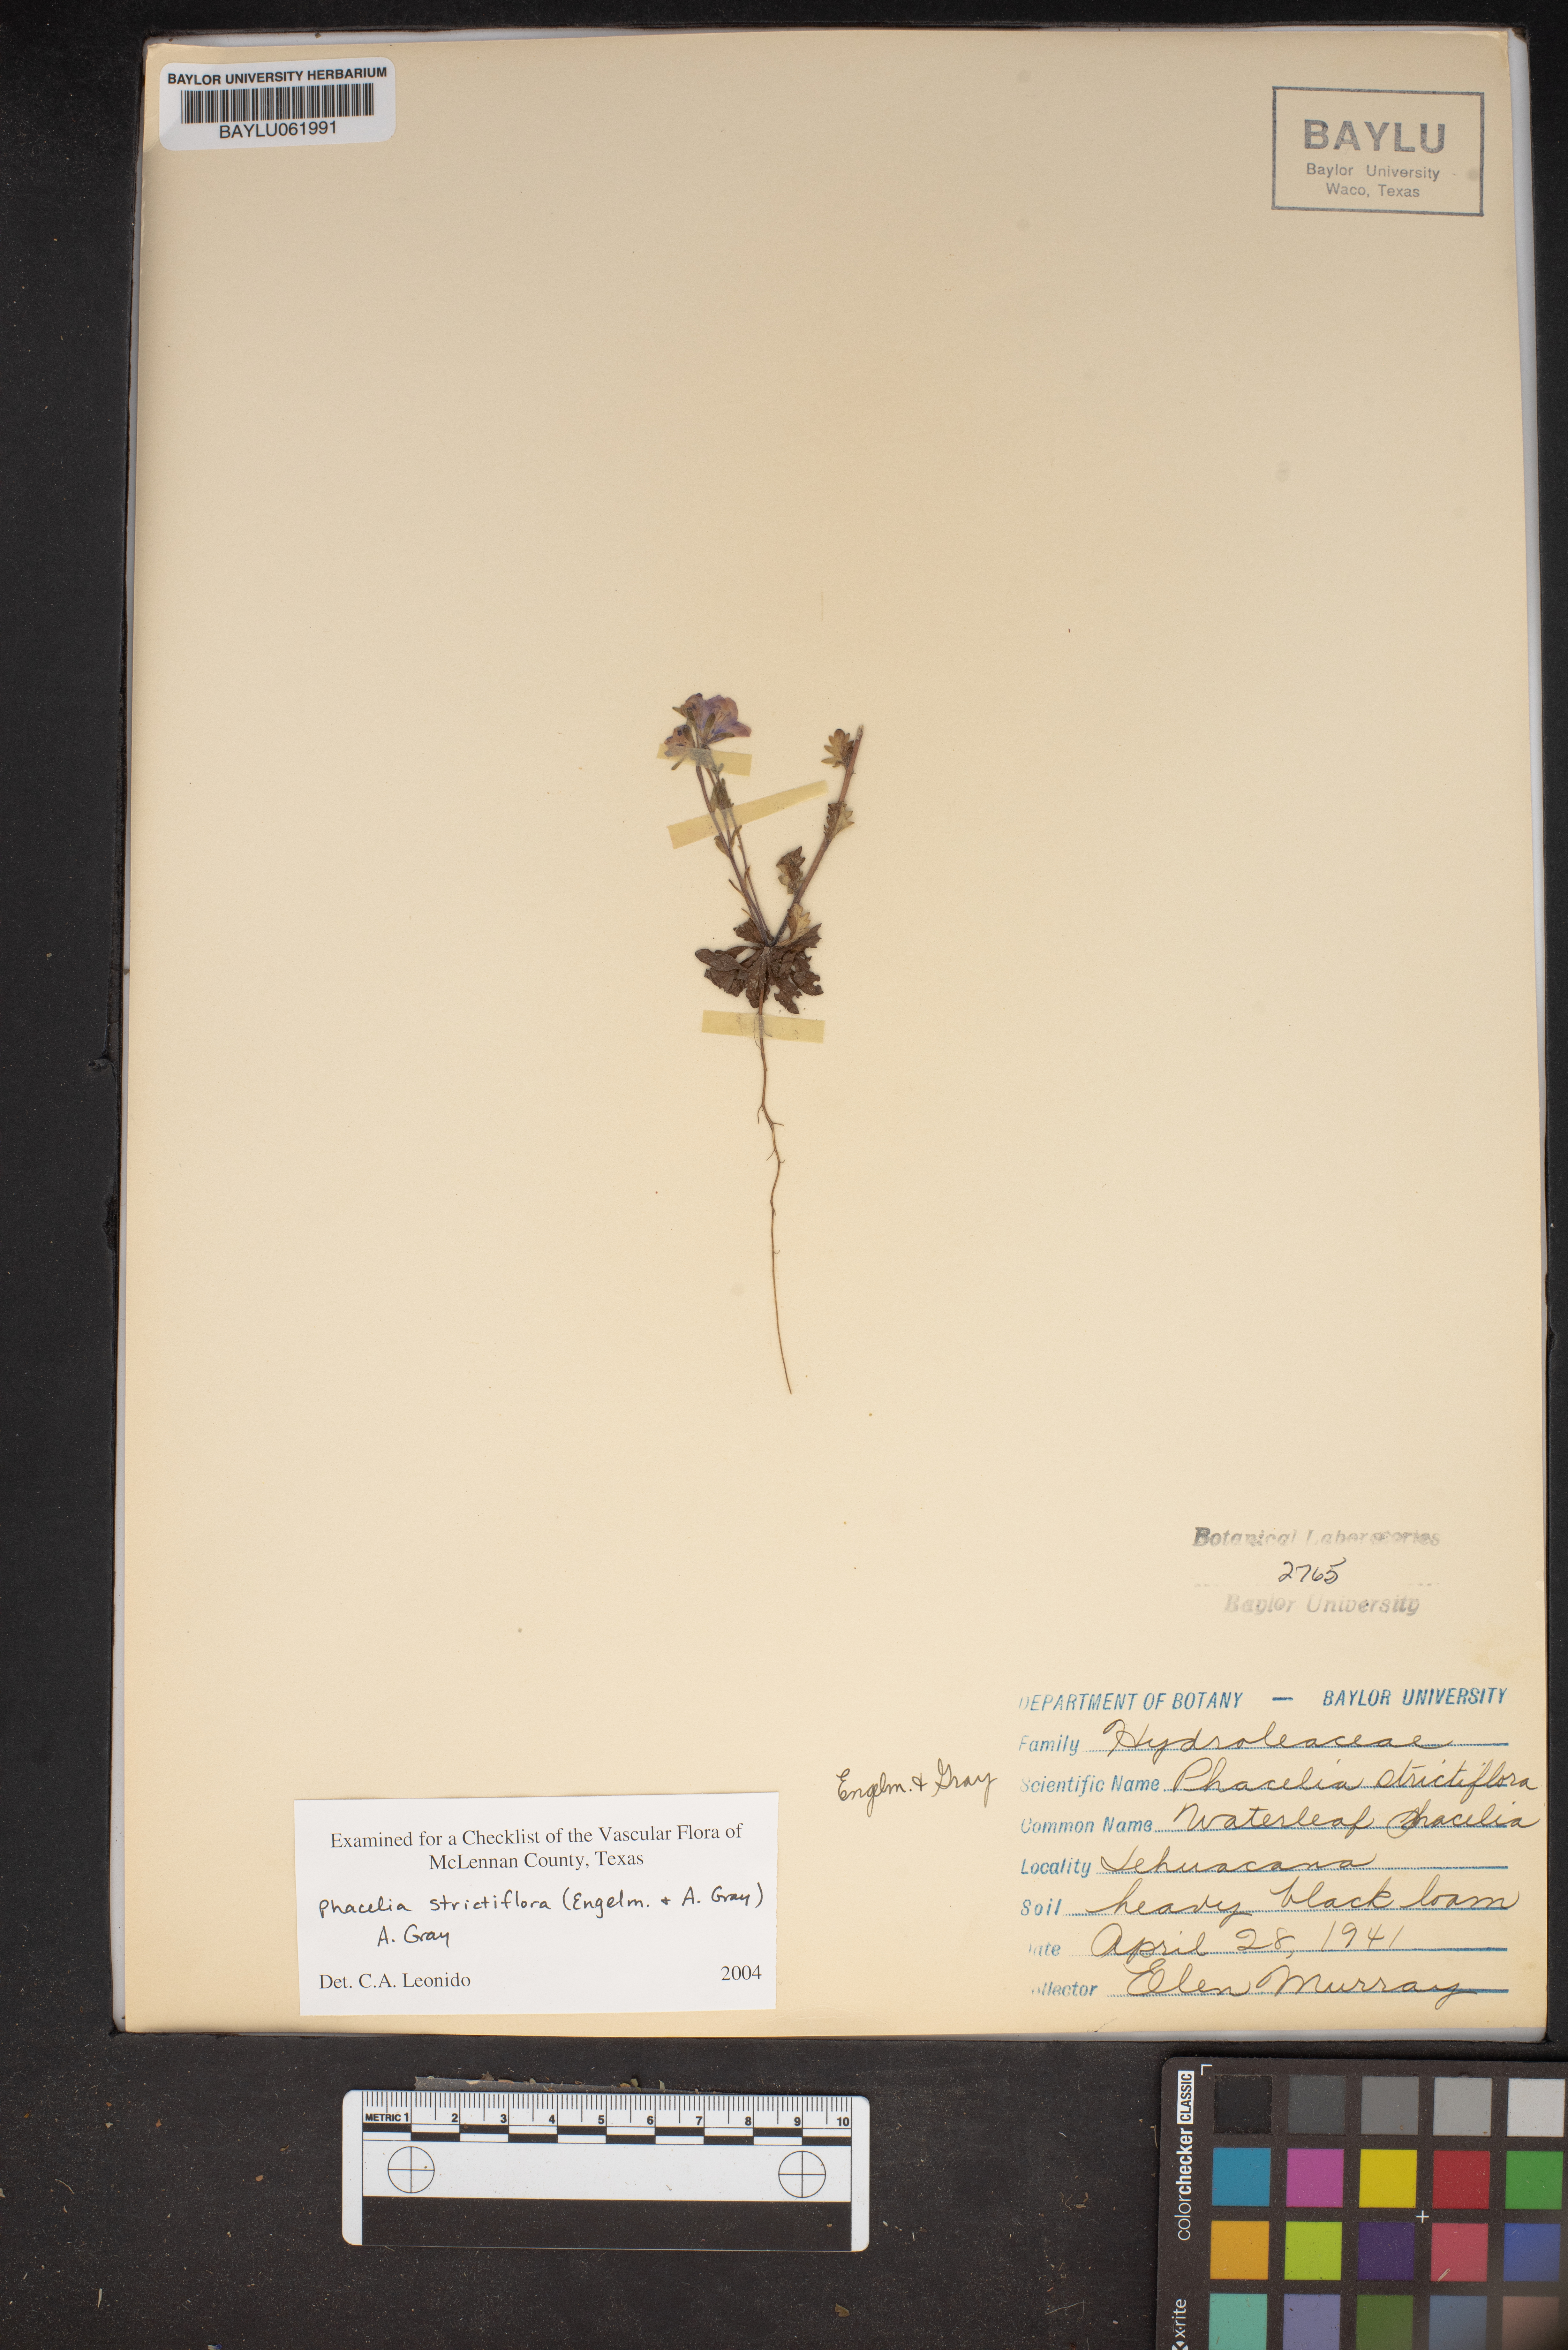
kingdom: Plantae
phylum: Tracheophyta
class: Magnoliopsida
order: Boraginales
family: Hydrophyllaceae
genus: Phacelia
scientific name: Phacelia strictiflora
